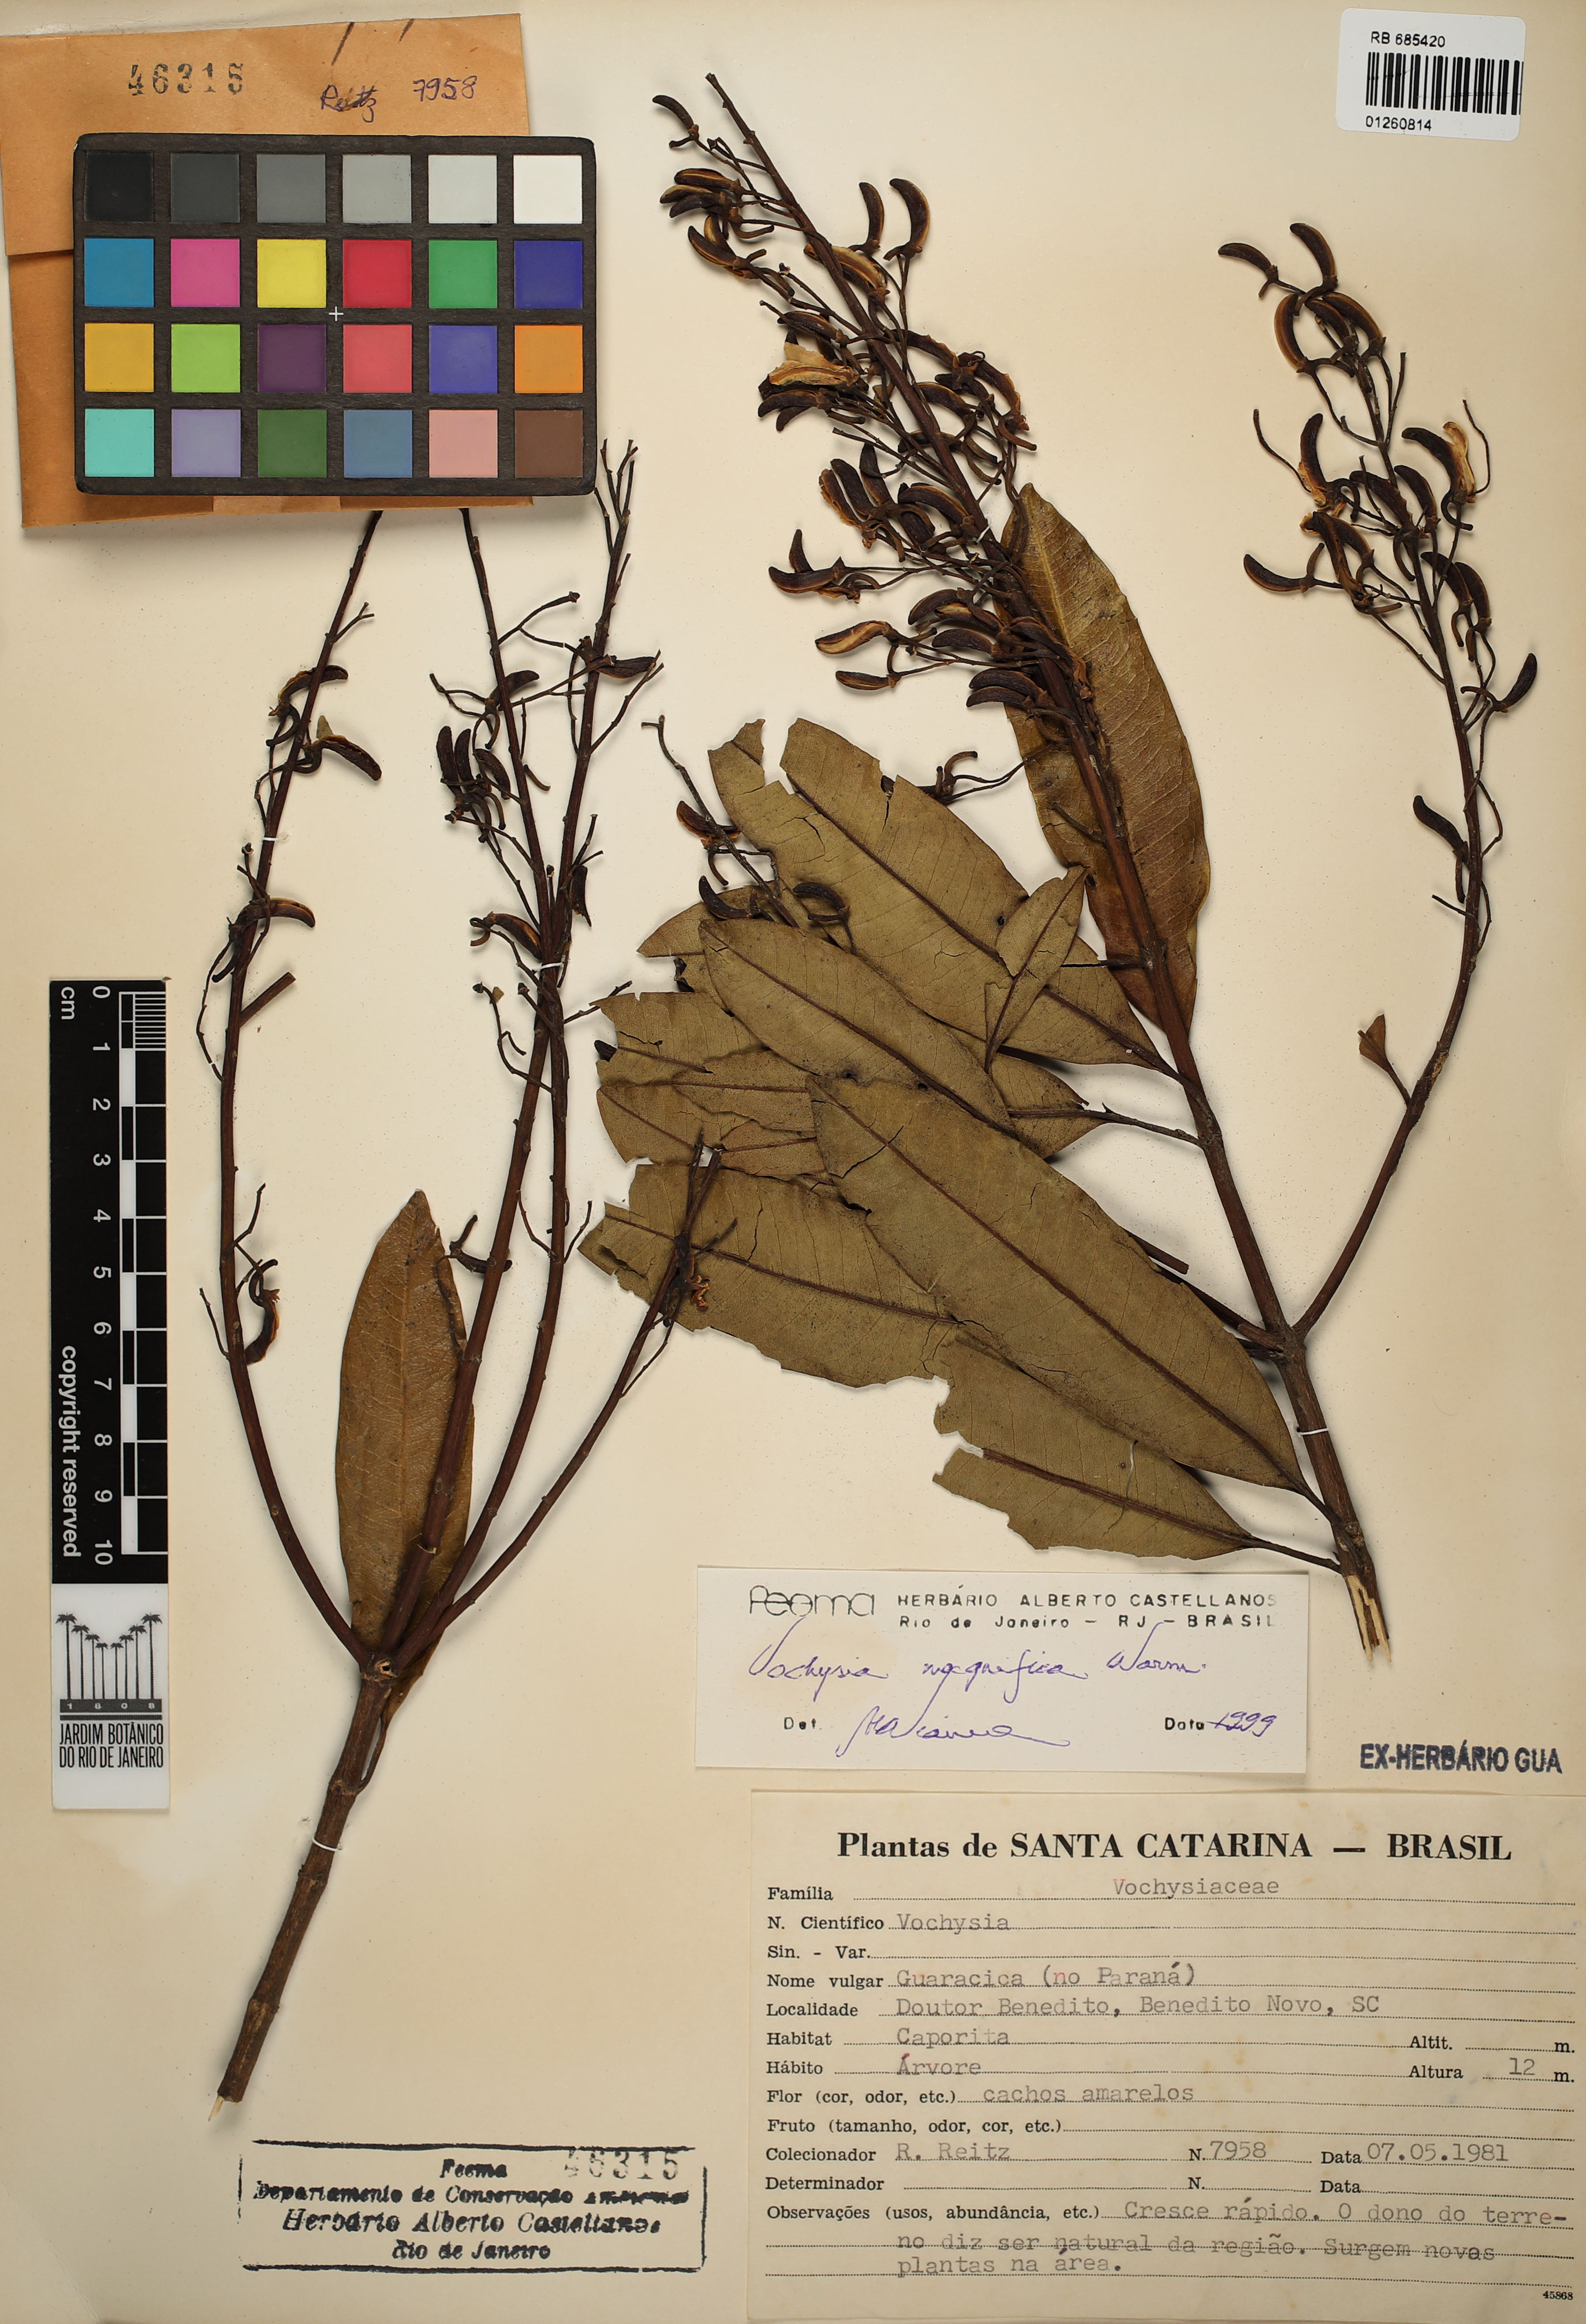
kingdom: Plantae
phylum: Tracheophyta
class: Magnoliopsida
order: Myrtales
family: Vochysiaceae
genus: Vochysia
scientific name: Vochysia magnifica
